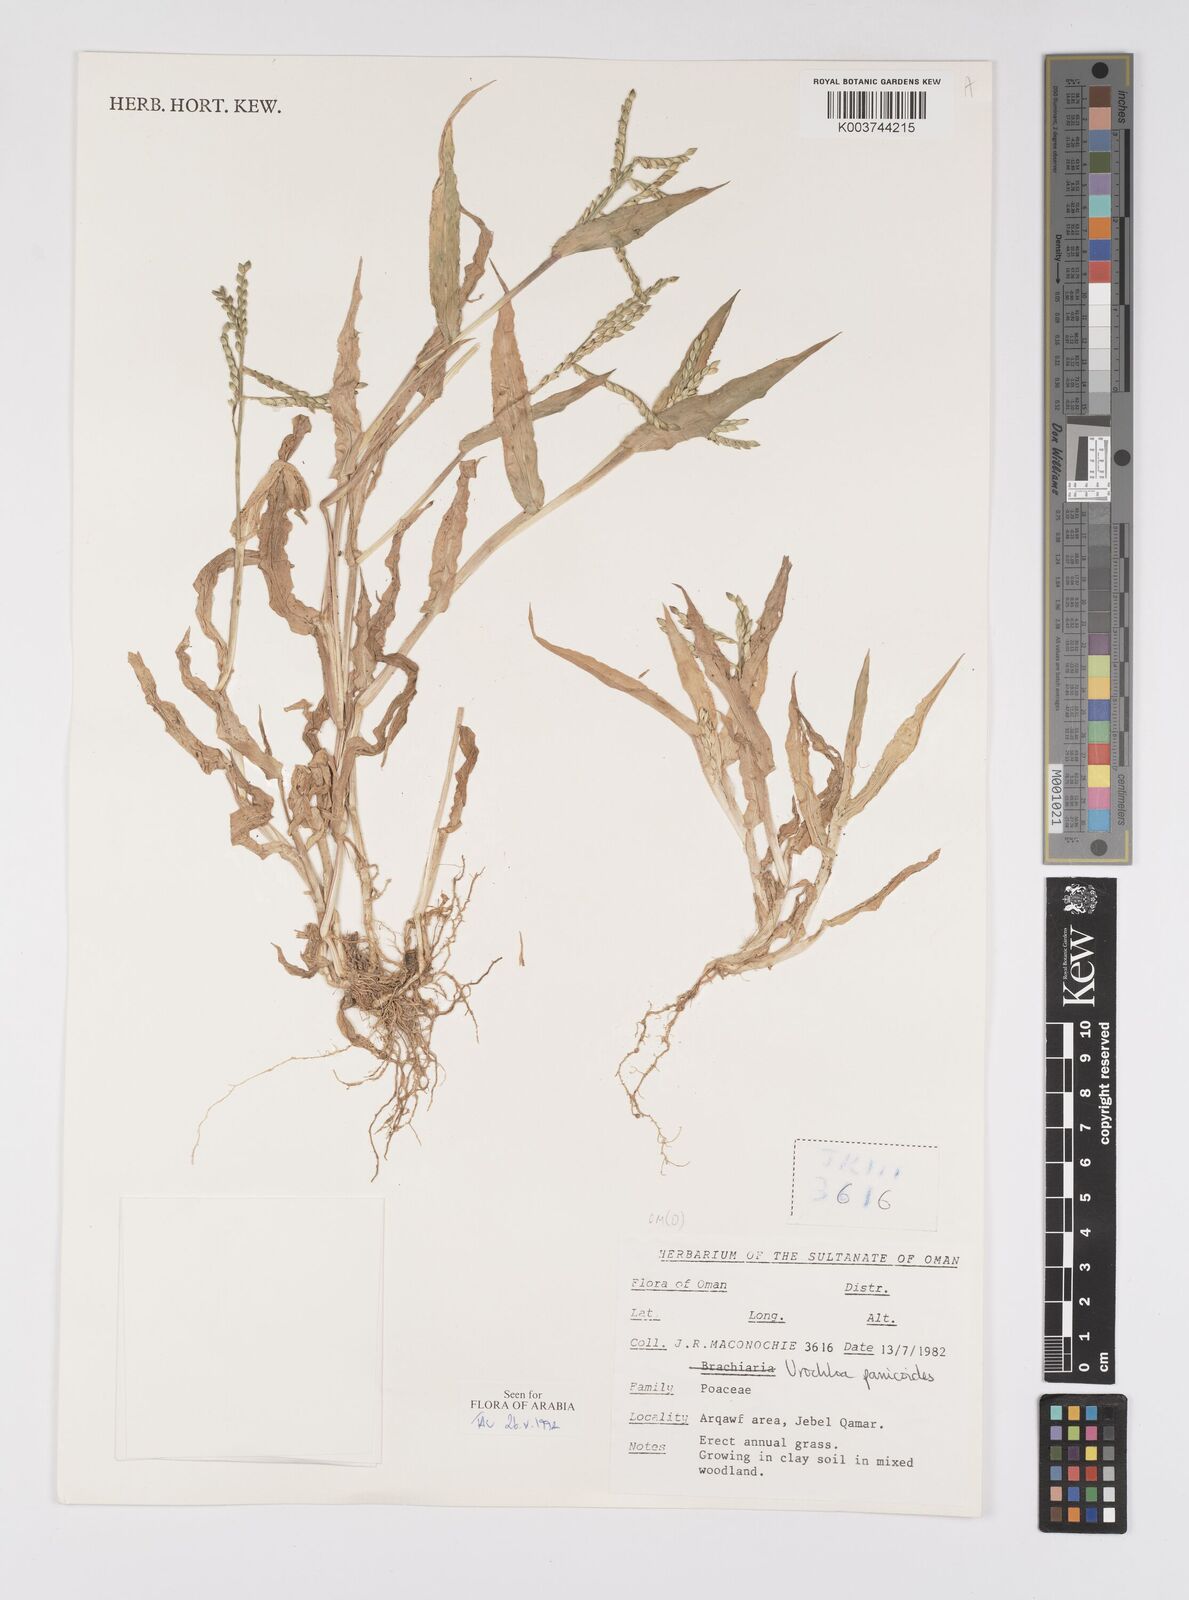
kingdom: Plantae
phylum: Tracheophyta
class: Liliopsida
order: Poales
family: Poaceae
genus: Urochloa
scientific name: Urochloa panicoides
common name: Sharp-flowered signal-grass
